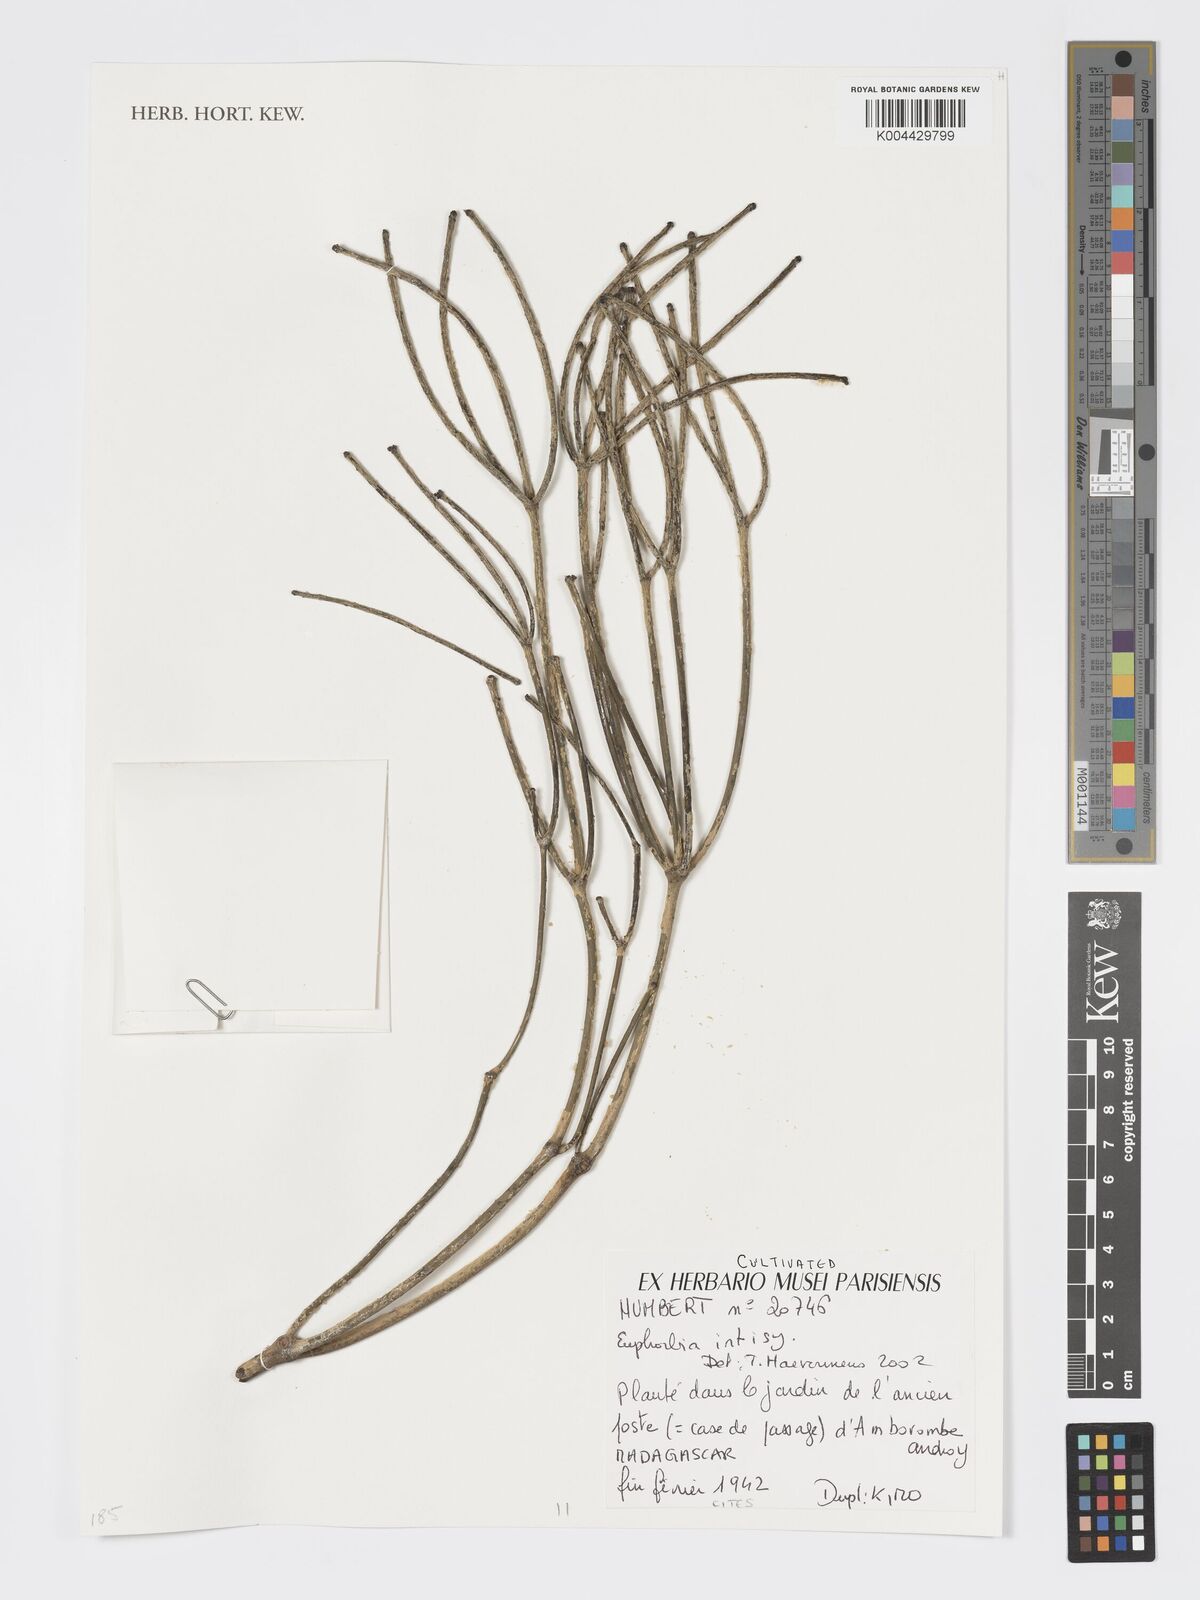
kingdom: Plantae
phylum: Tracheophyta
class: Magnoliopsida
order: Malpighiales
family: Euphorbiaceae
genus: Euphorbia
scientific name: Euphorbia intisy
